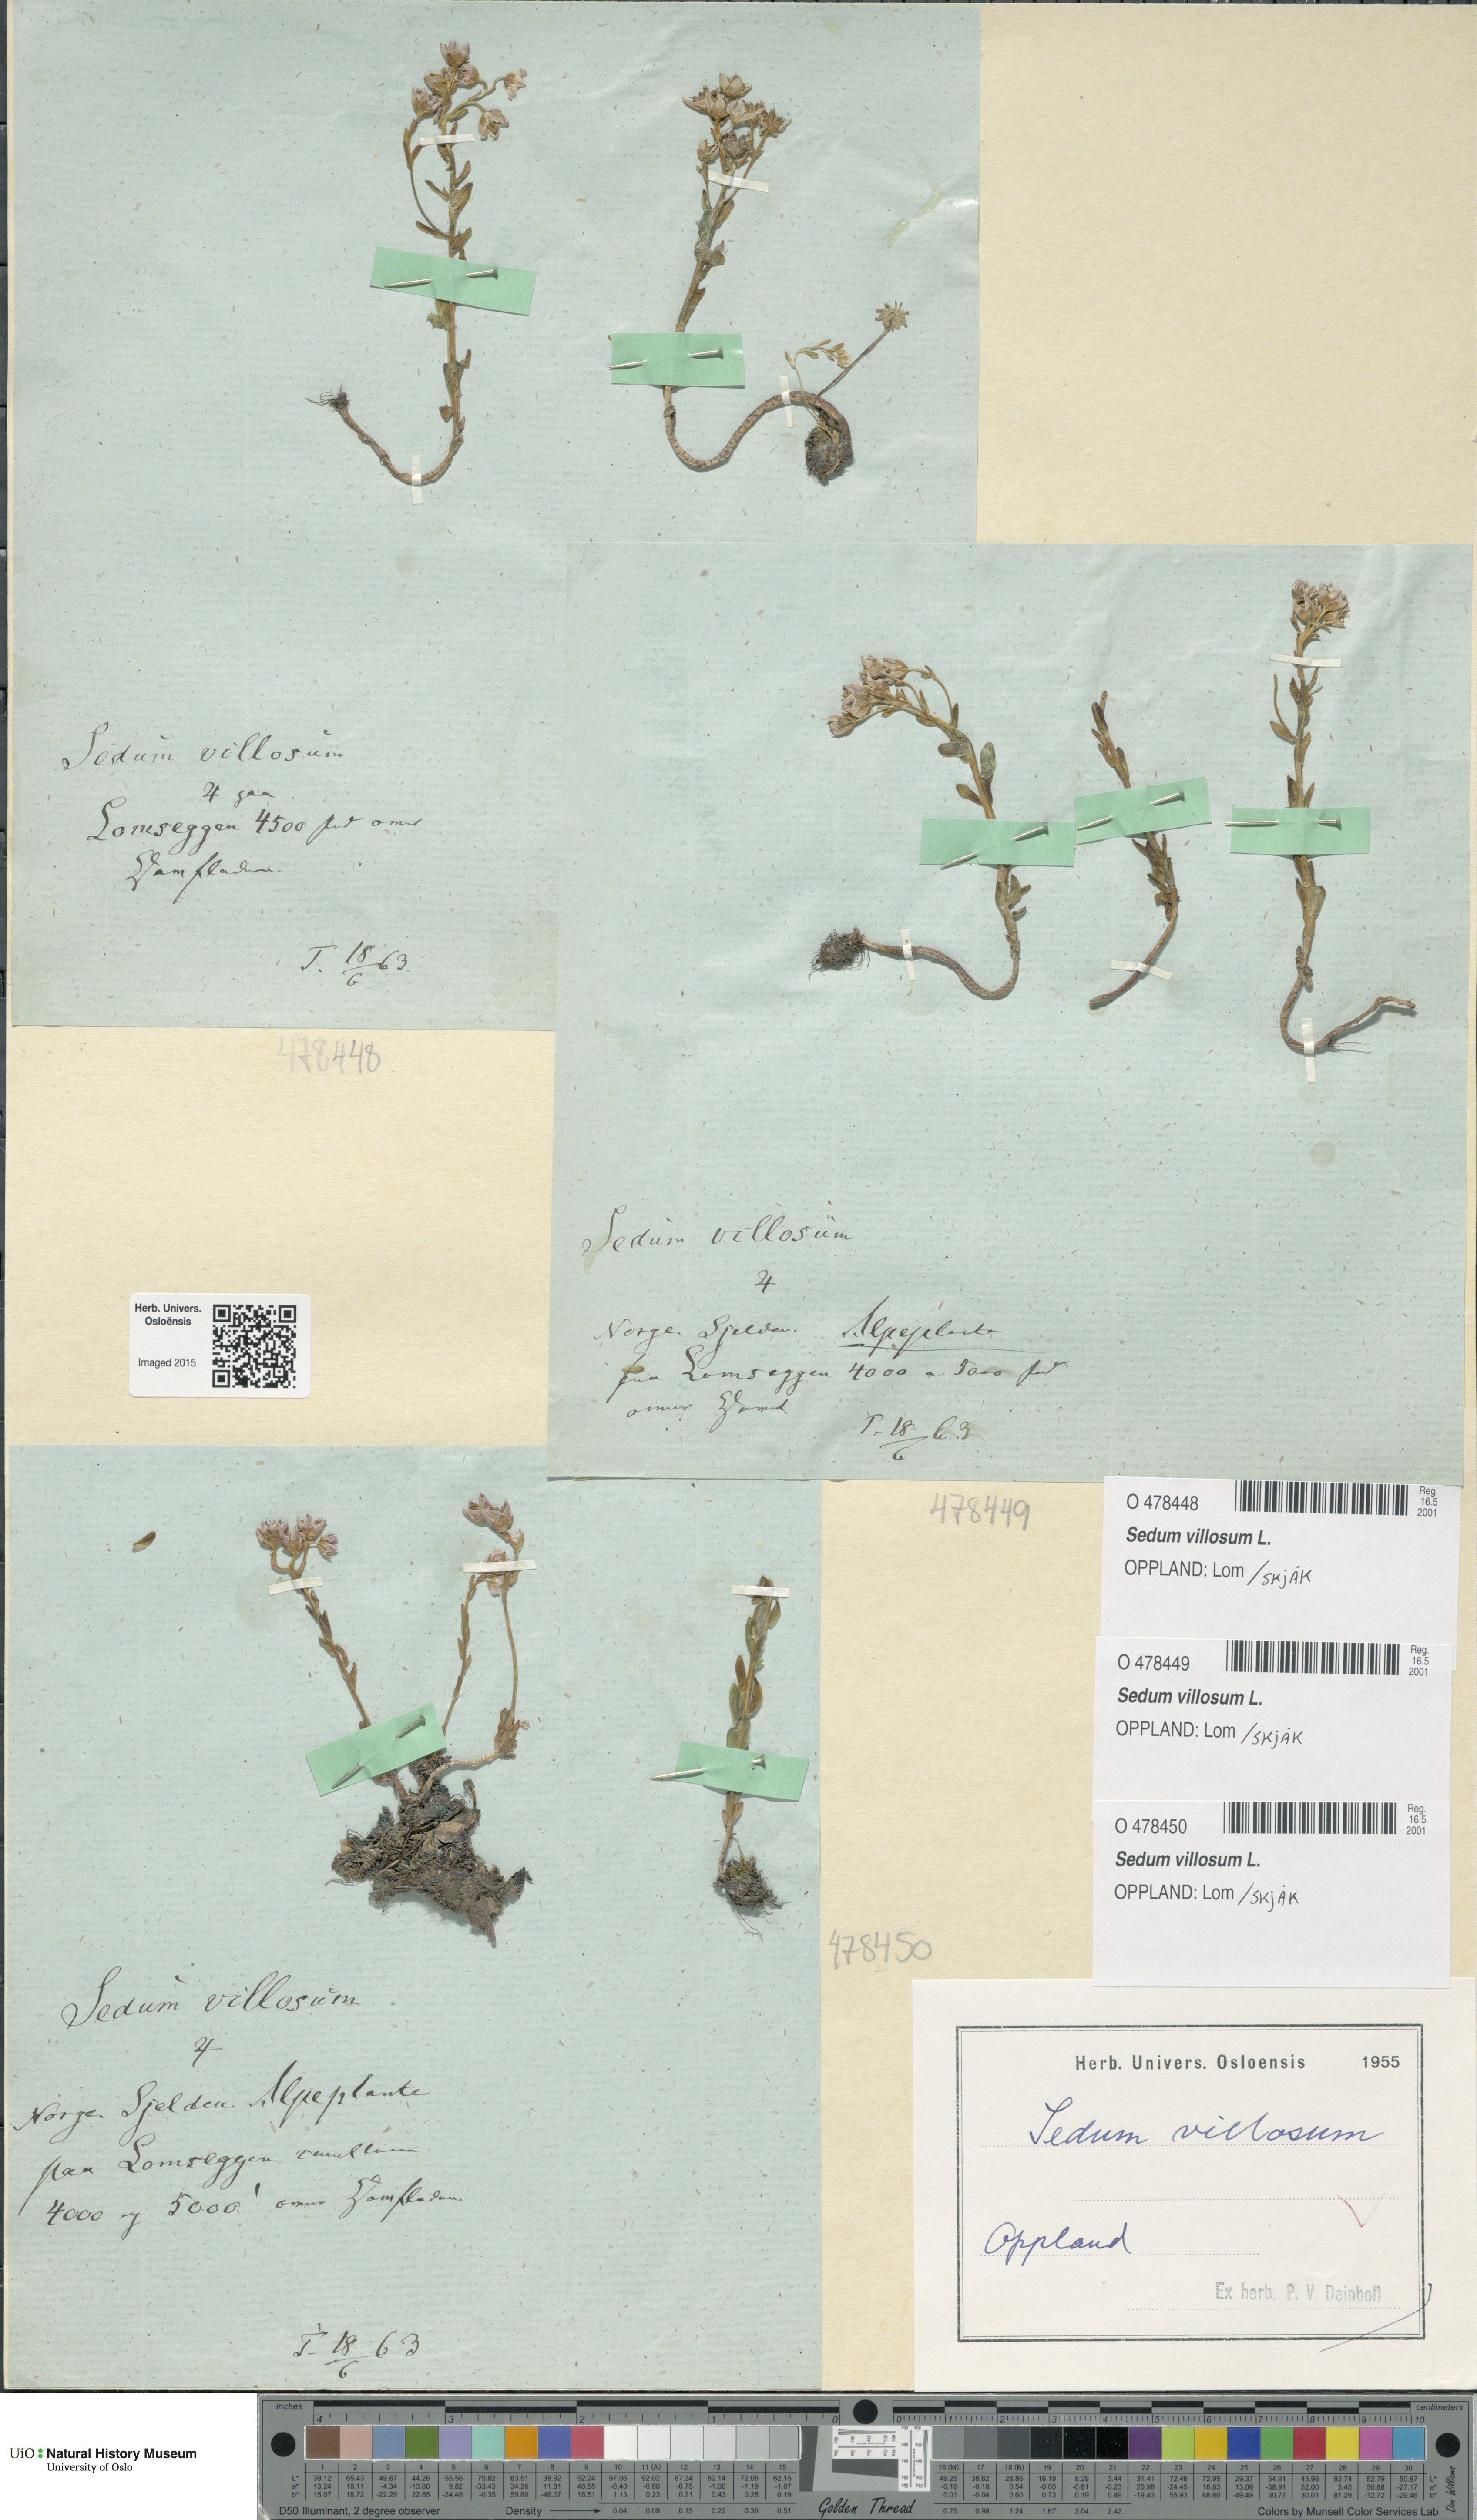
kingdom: Plantae
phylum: Tracheophyta
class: Magnoliopsida
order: Saxifragales
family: Crassulaceae
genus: Sedum
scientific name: Sedum villosum
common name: Hairy stonecrop
